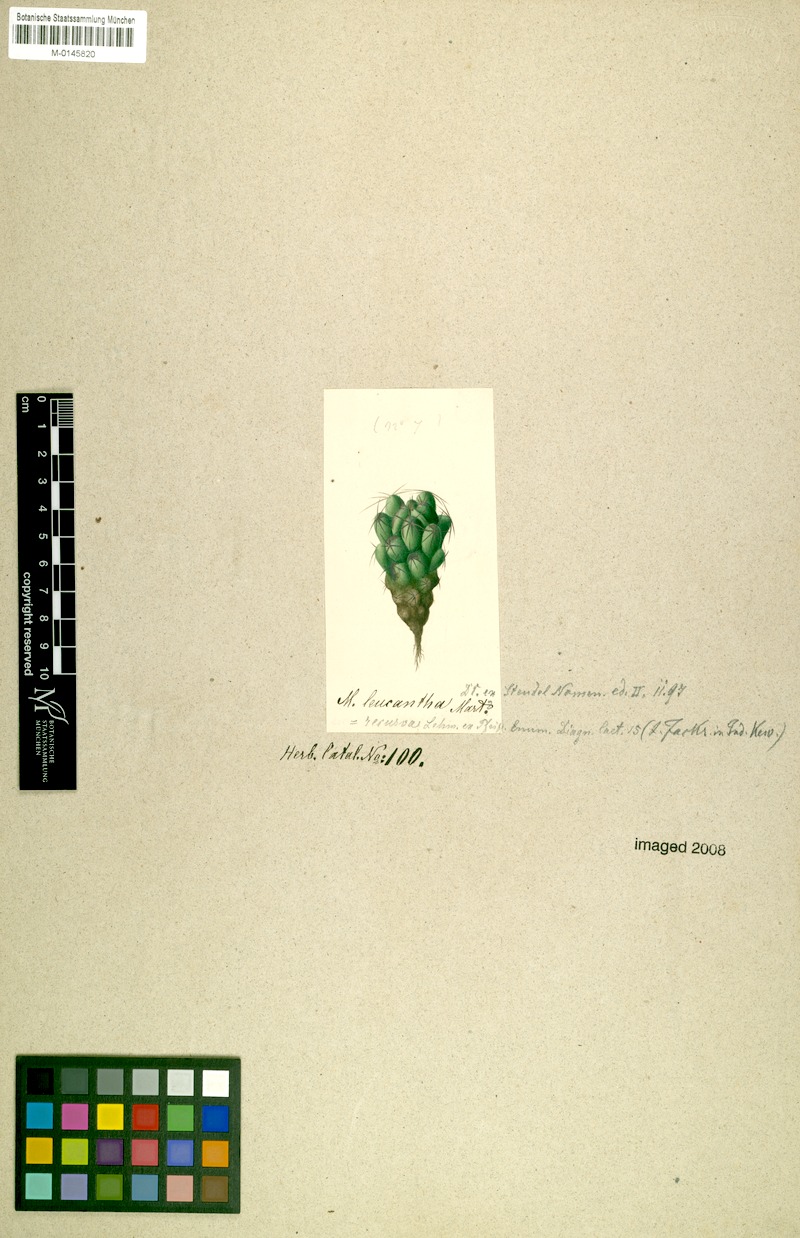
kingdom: Plantae
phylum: Tracheophyta
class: Magnoliopsida
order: Caryophyllales
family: Cactaceae
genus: Mammillaria
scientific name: Mammillaria magnimamma
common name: Mexican pincushion
